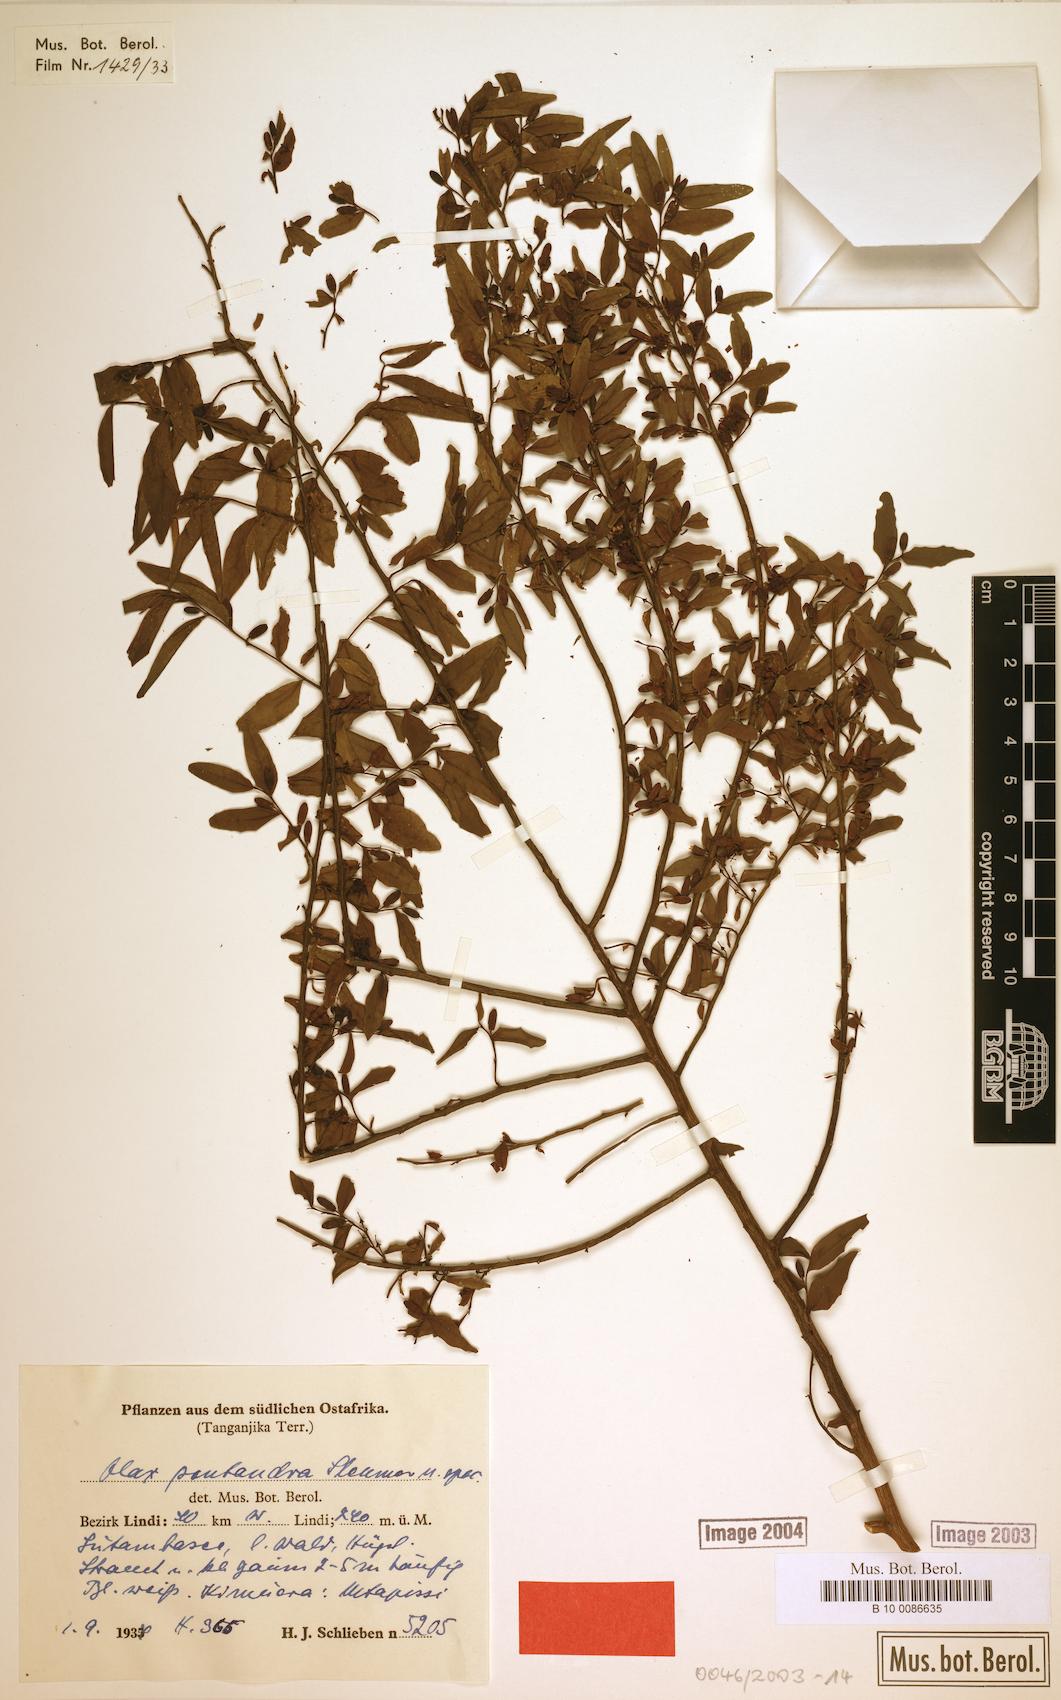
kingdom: Plantae
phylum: Tracheophyta
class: Magnoliopsida
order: Santalales
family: Olacaceae
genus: Olax
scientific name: Olax pentandra
